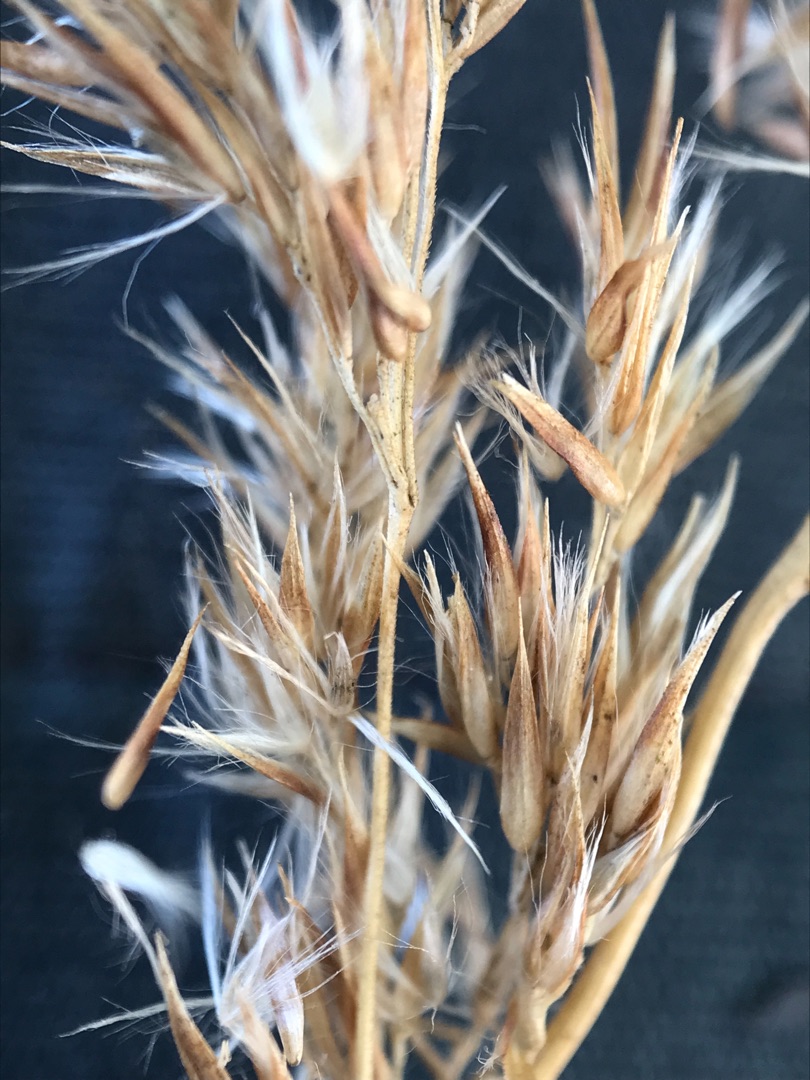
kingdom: Plantae
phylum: Tracheophyta
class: Liliopsida
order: Poales
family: Poaceae
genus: Calamagrostis
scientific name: Calamagrostis canescens
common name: Eng-rørhvene
